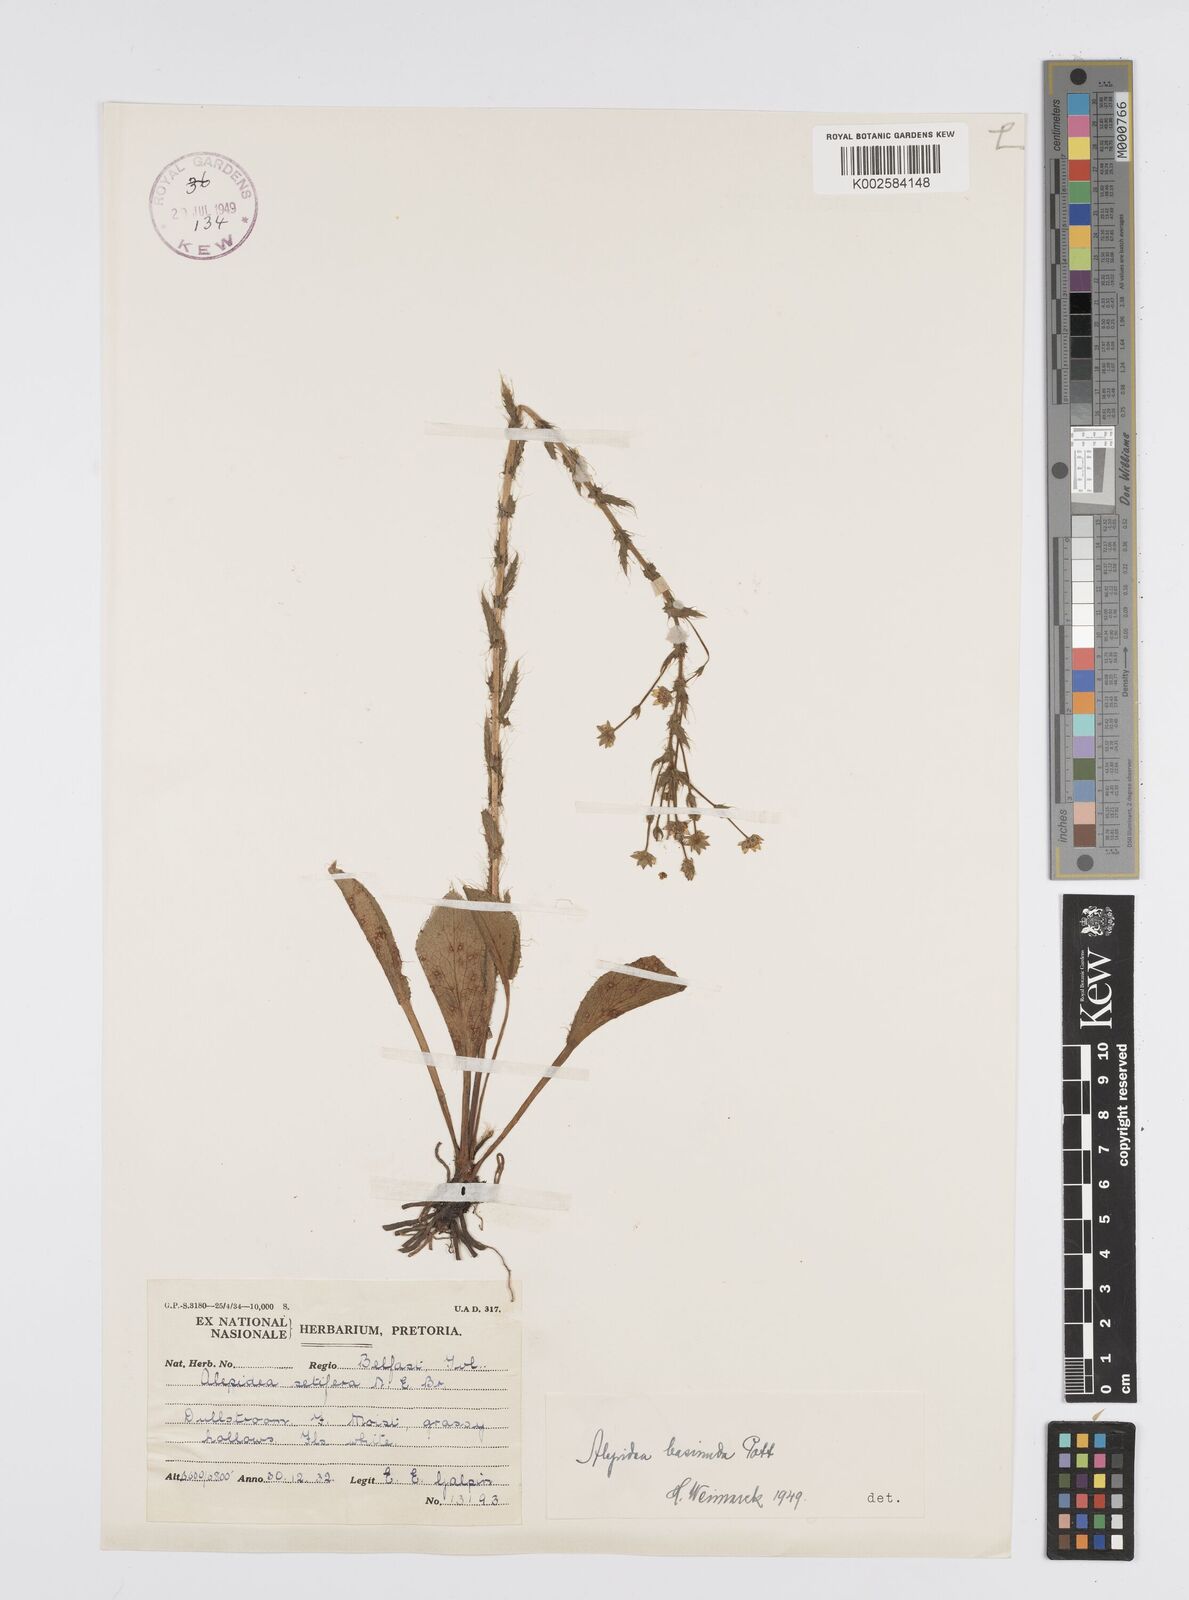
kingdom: Plantae
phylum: Tracheophyta
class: Magnoliopsida
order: Apiales
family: Apiaceae
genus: Alepidea
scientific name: Alepidea setifera
